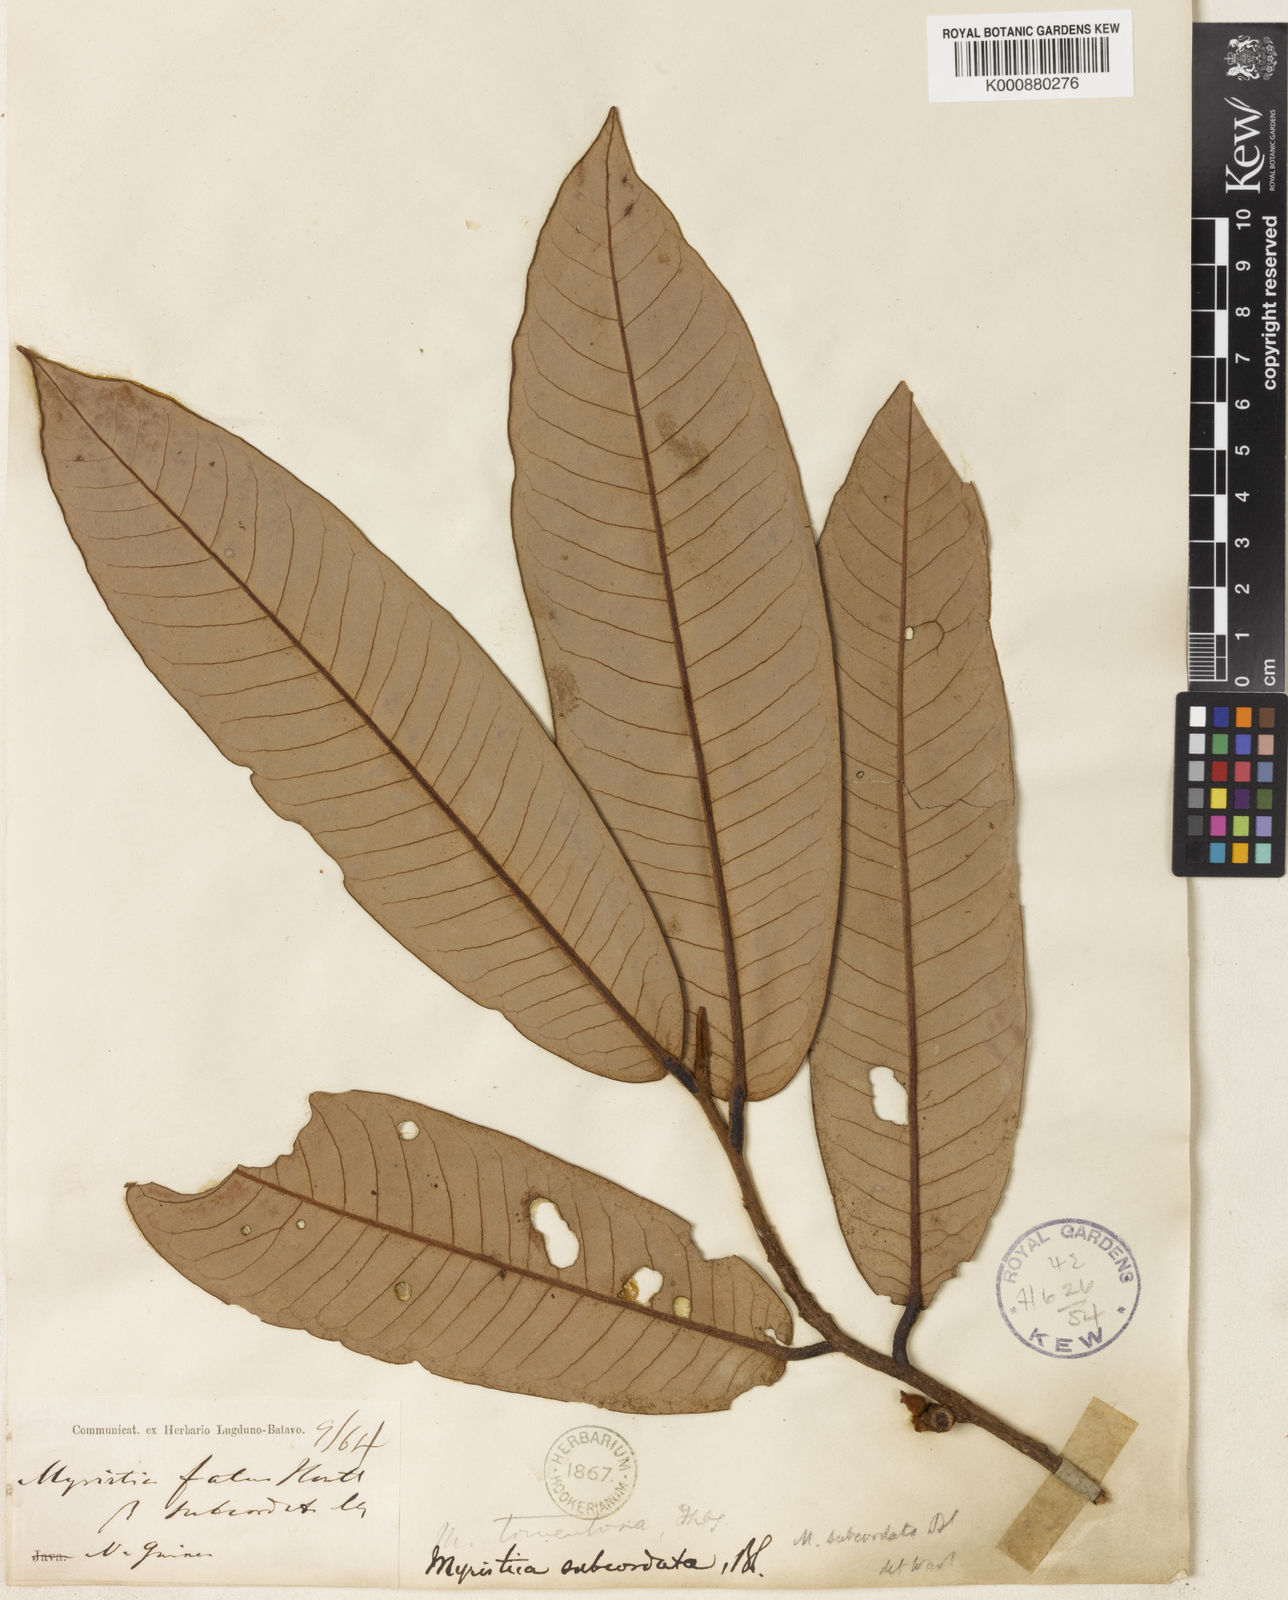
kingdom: Plantae
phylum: Tracheophyta
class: Magnoliopsida
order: Magnoliales
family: Myristicaceae
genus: Myristica
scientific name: Myristica fatua
